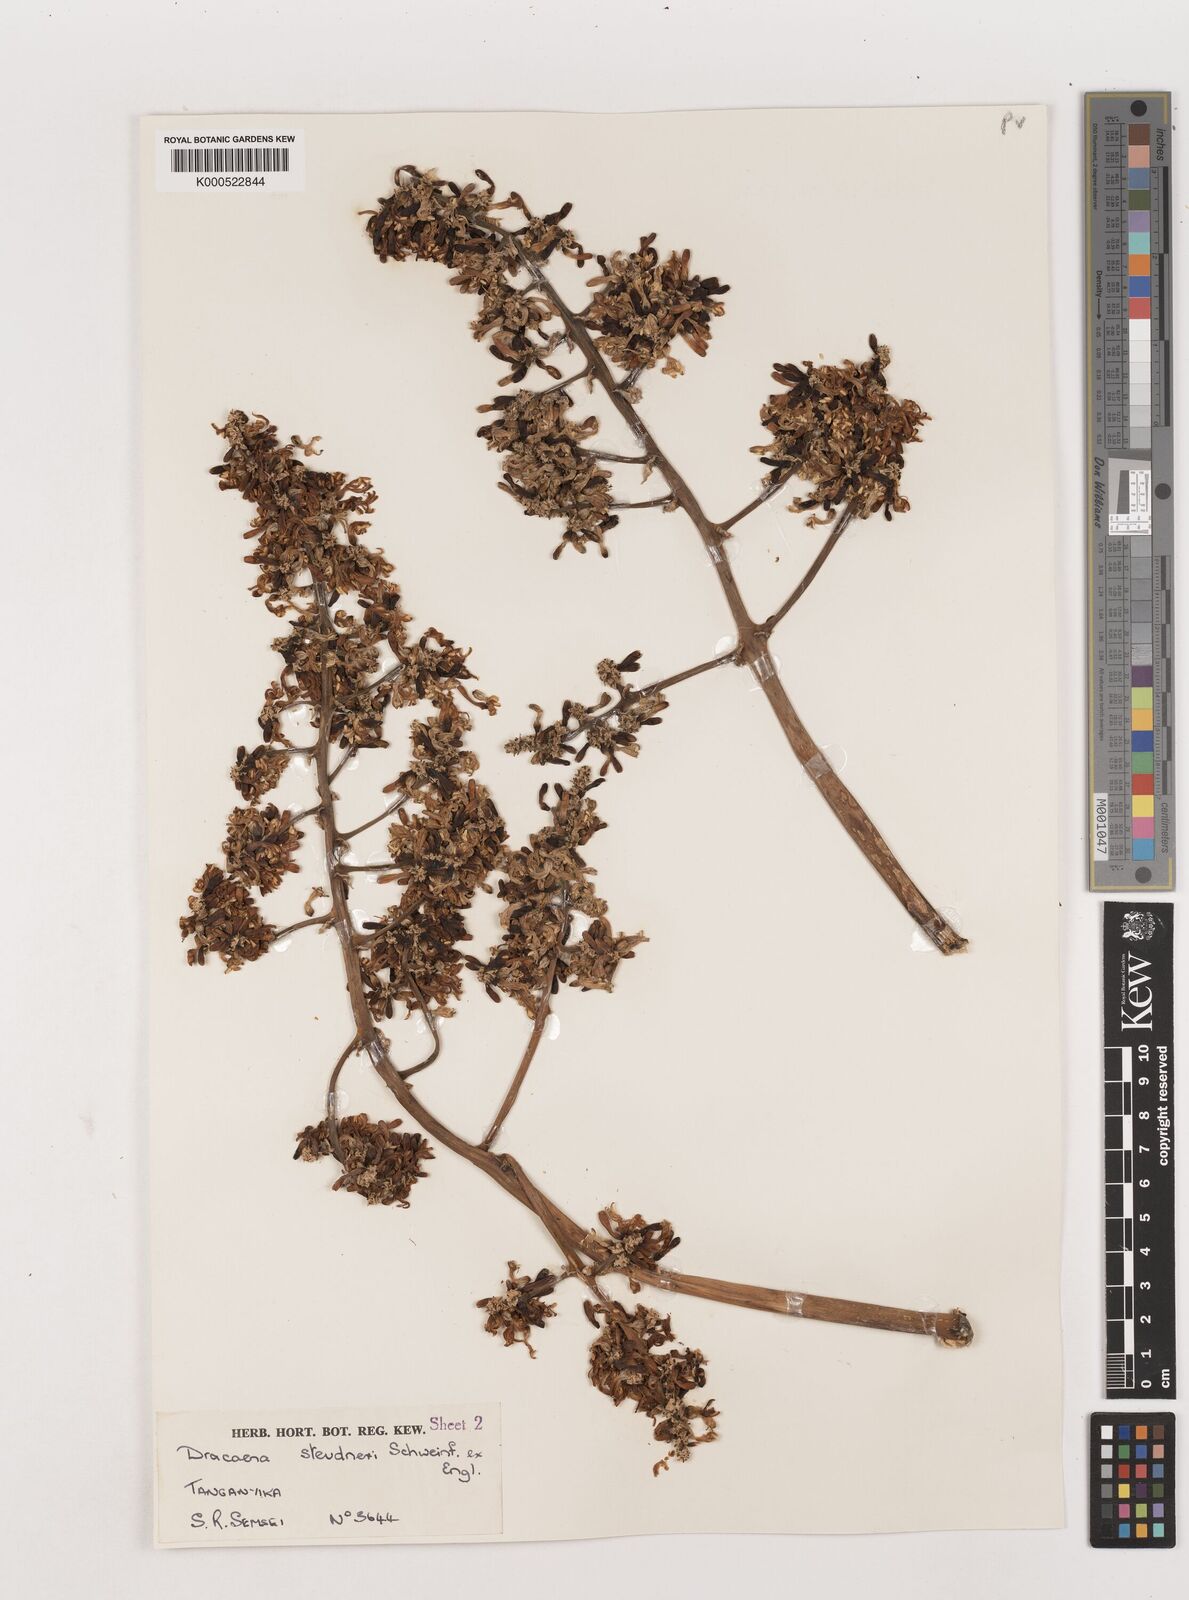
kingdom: Plantae
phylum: Tracheophyta
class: Liliopsida
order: Asparagales
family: Asparagaceae
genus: Dracaena
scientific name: Dracaena steudneri
